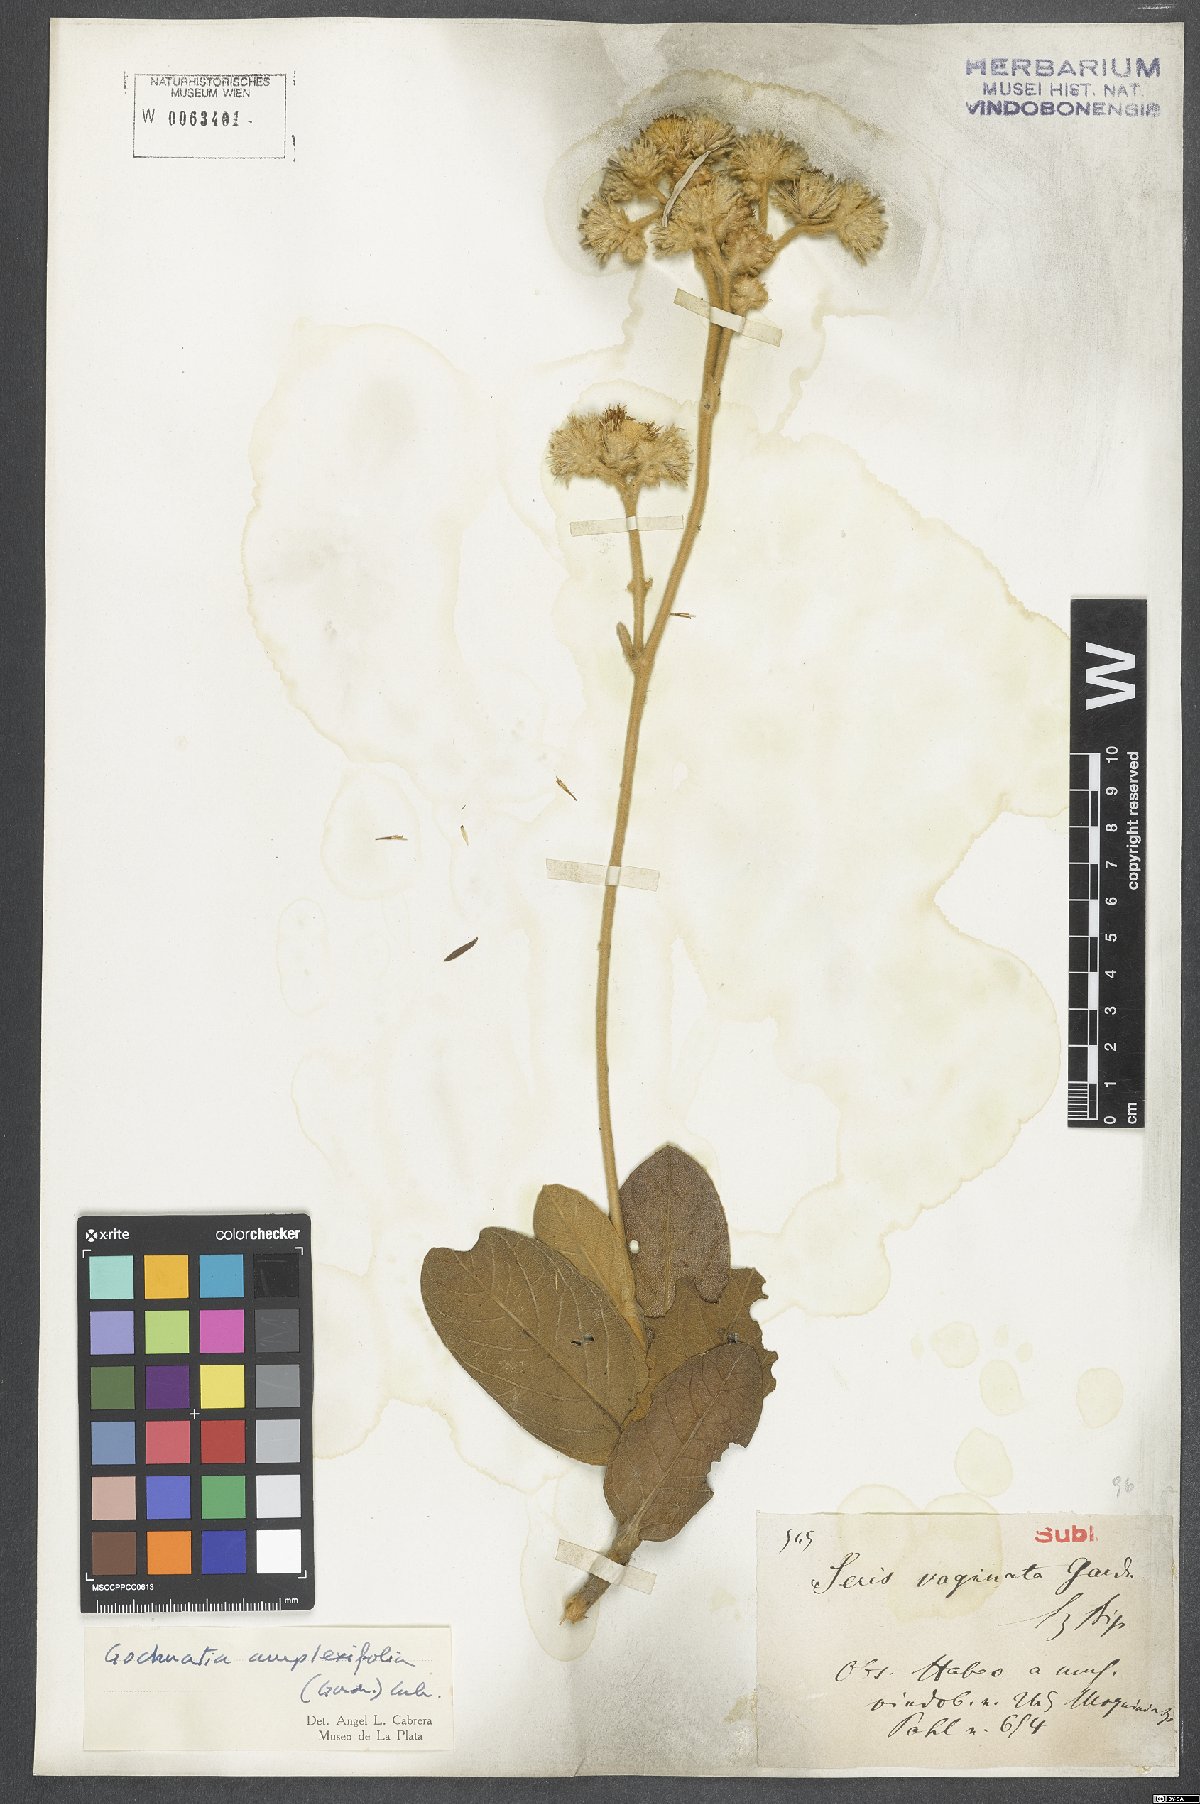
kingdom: Plantae
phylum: Tracheophyta
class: Magnoliopsida
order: Asterales
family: Asteraceae
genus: Richterago
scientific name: Richterago amplexifolia
